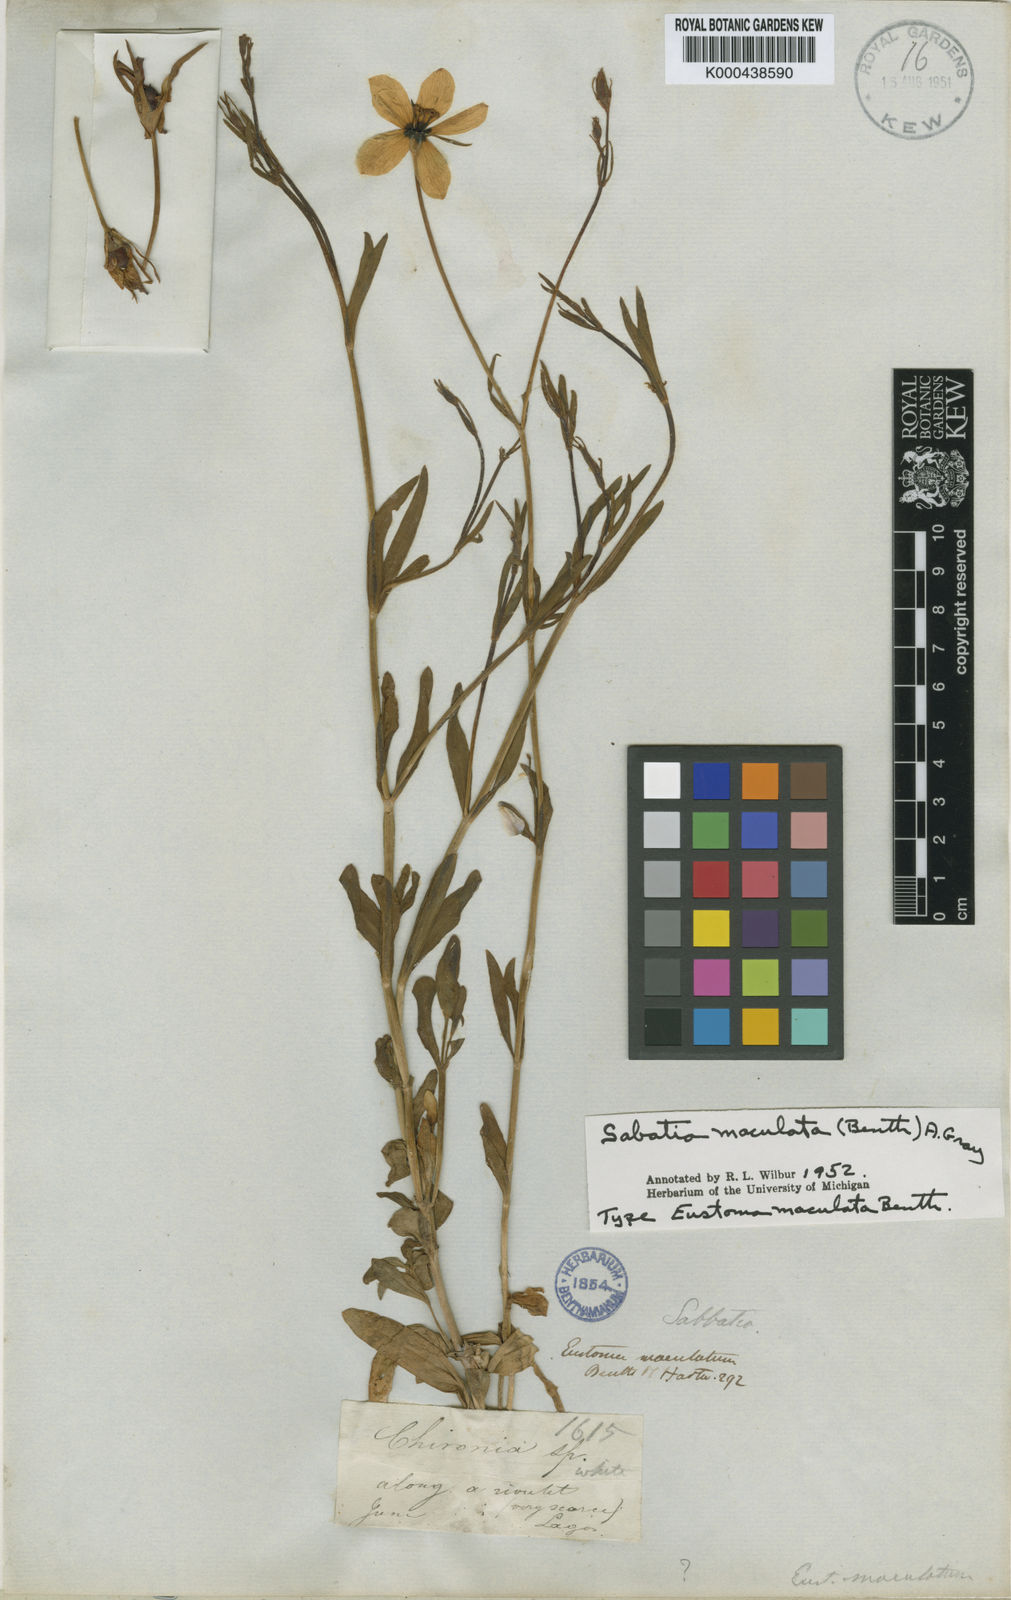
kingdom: Plantae
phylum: Tracheophyta
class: Magnoliopsida
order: Gentianales
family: Gentianaceae
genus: Sabbatia
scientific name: Sabbatia
